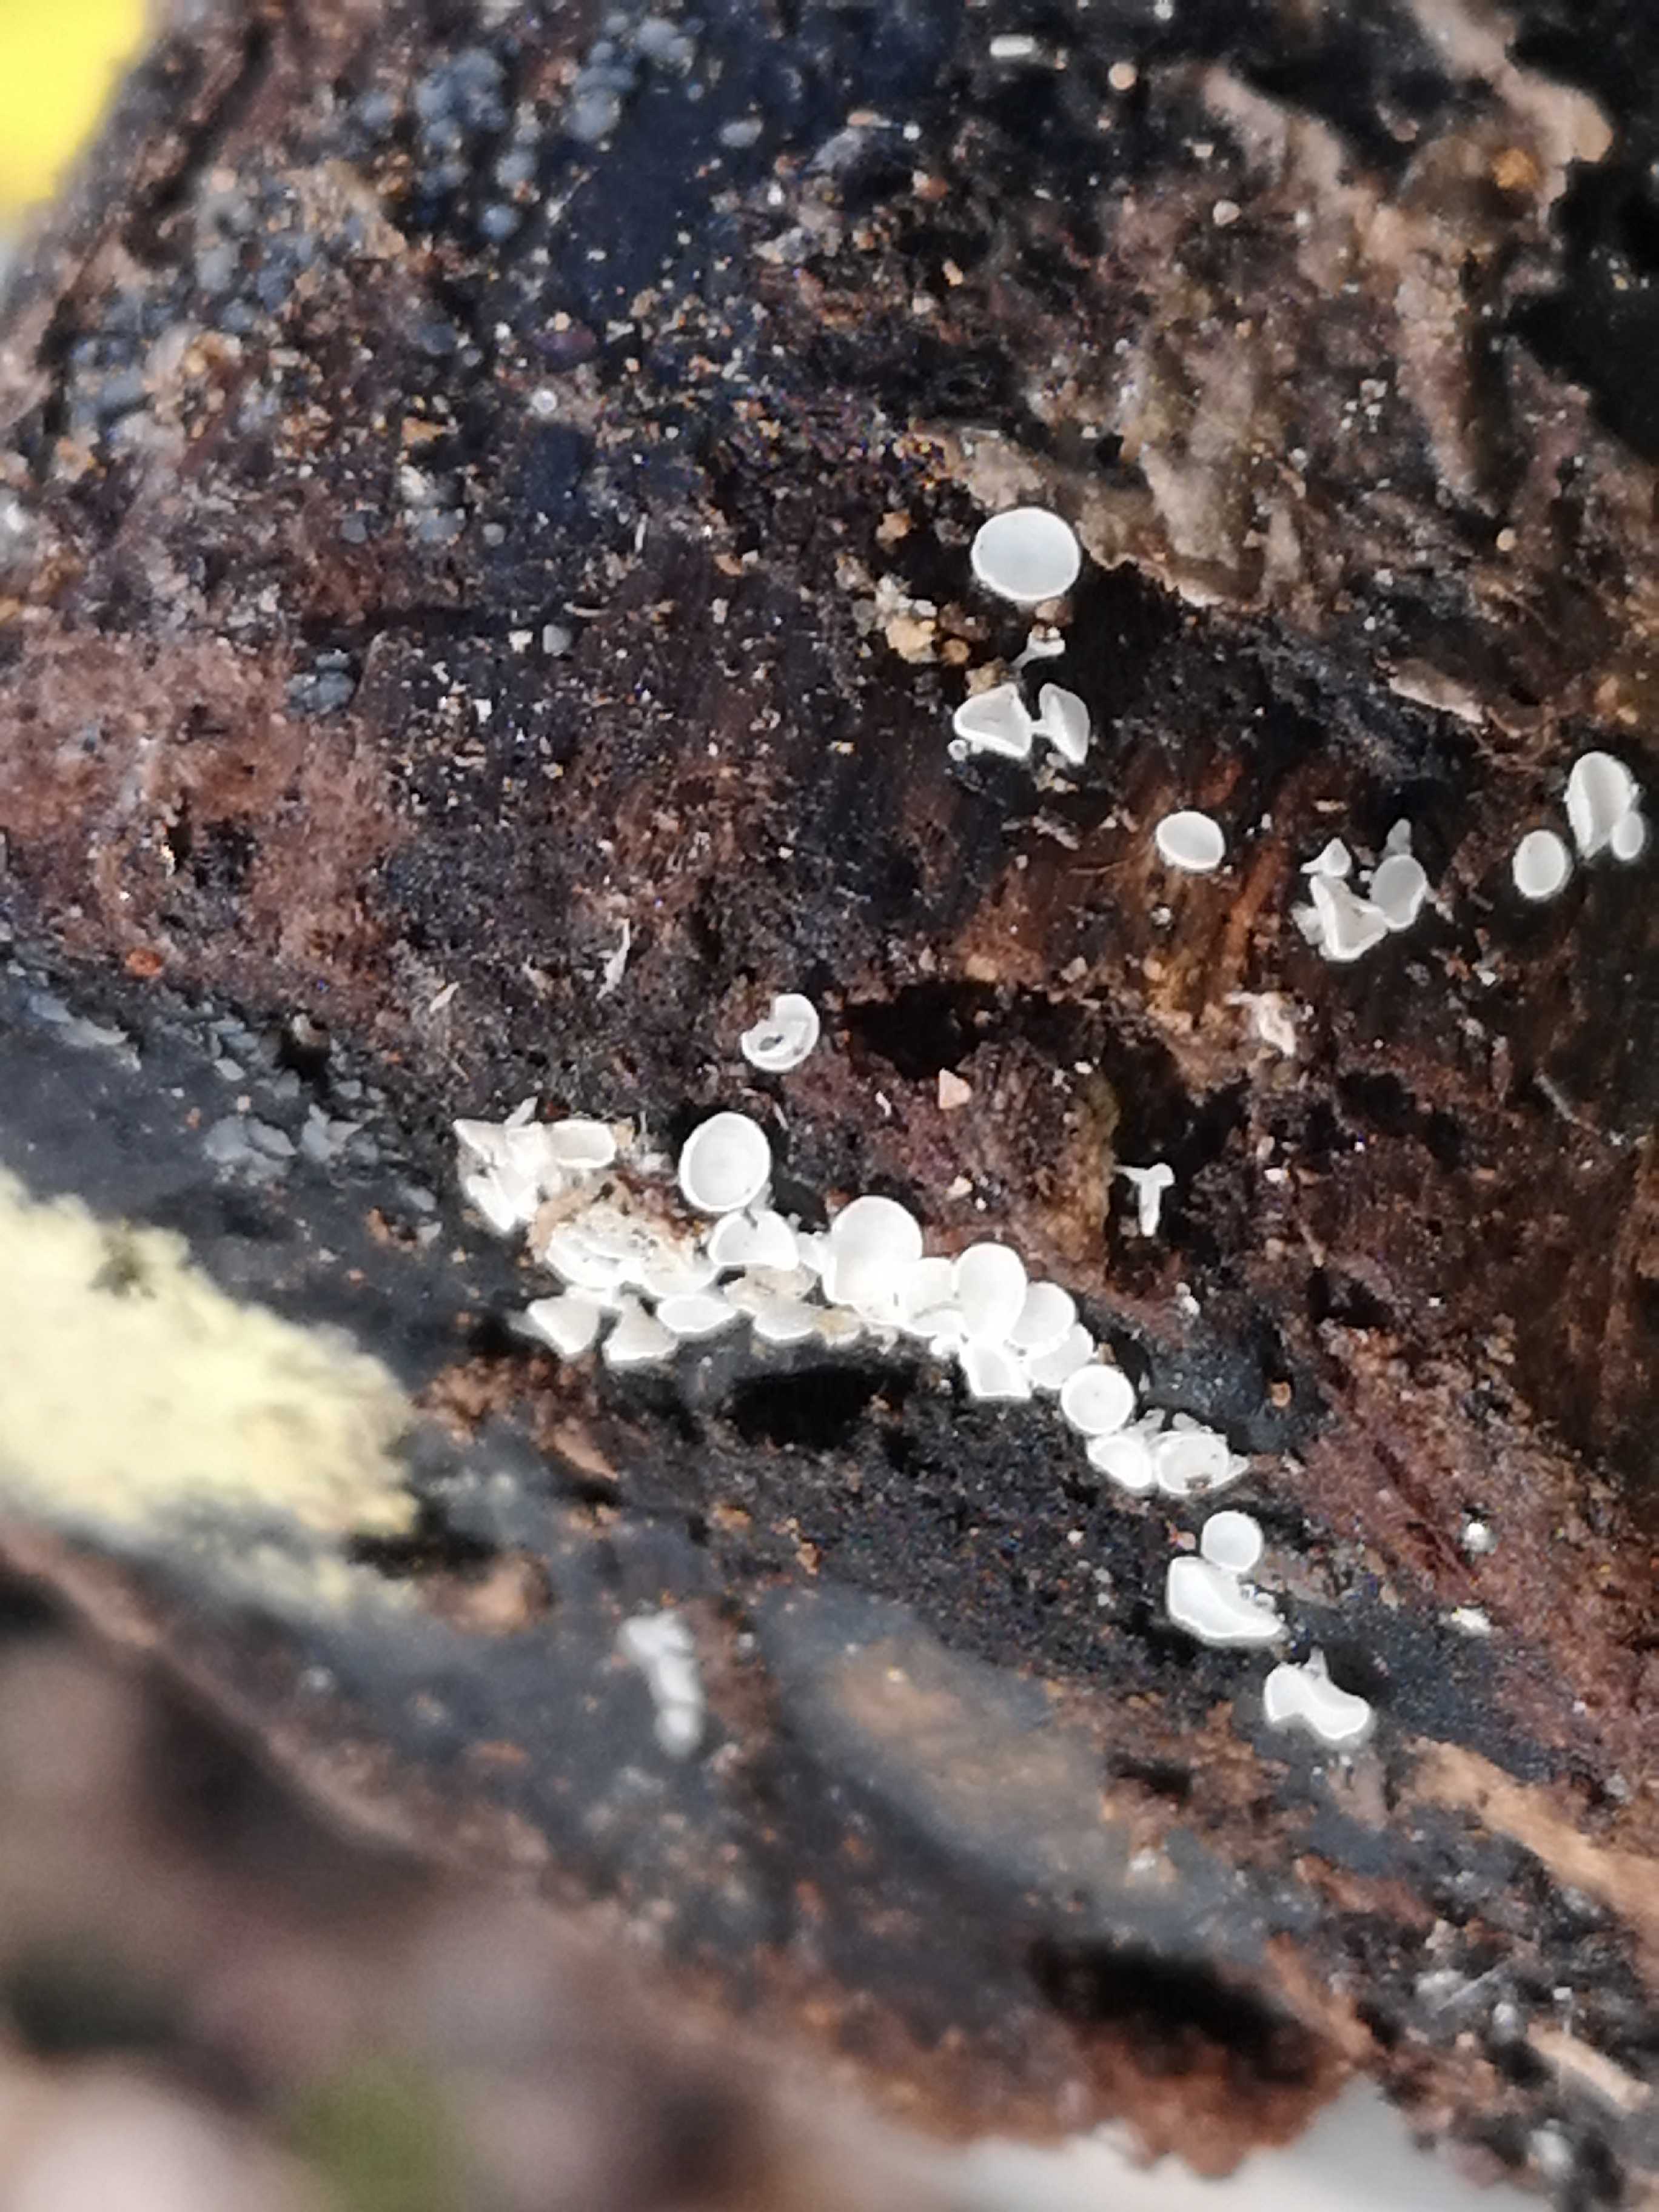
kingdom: Fungi
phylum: Ascomycota
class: Leotiomycetes
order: Helotiales
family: Lachnaceae
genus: Lachnum
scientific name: Lachnum
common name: frynseskive
